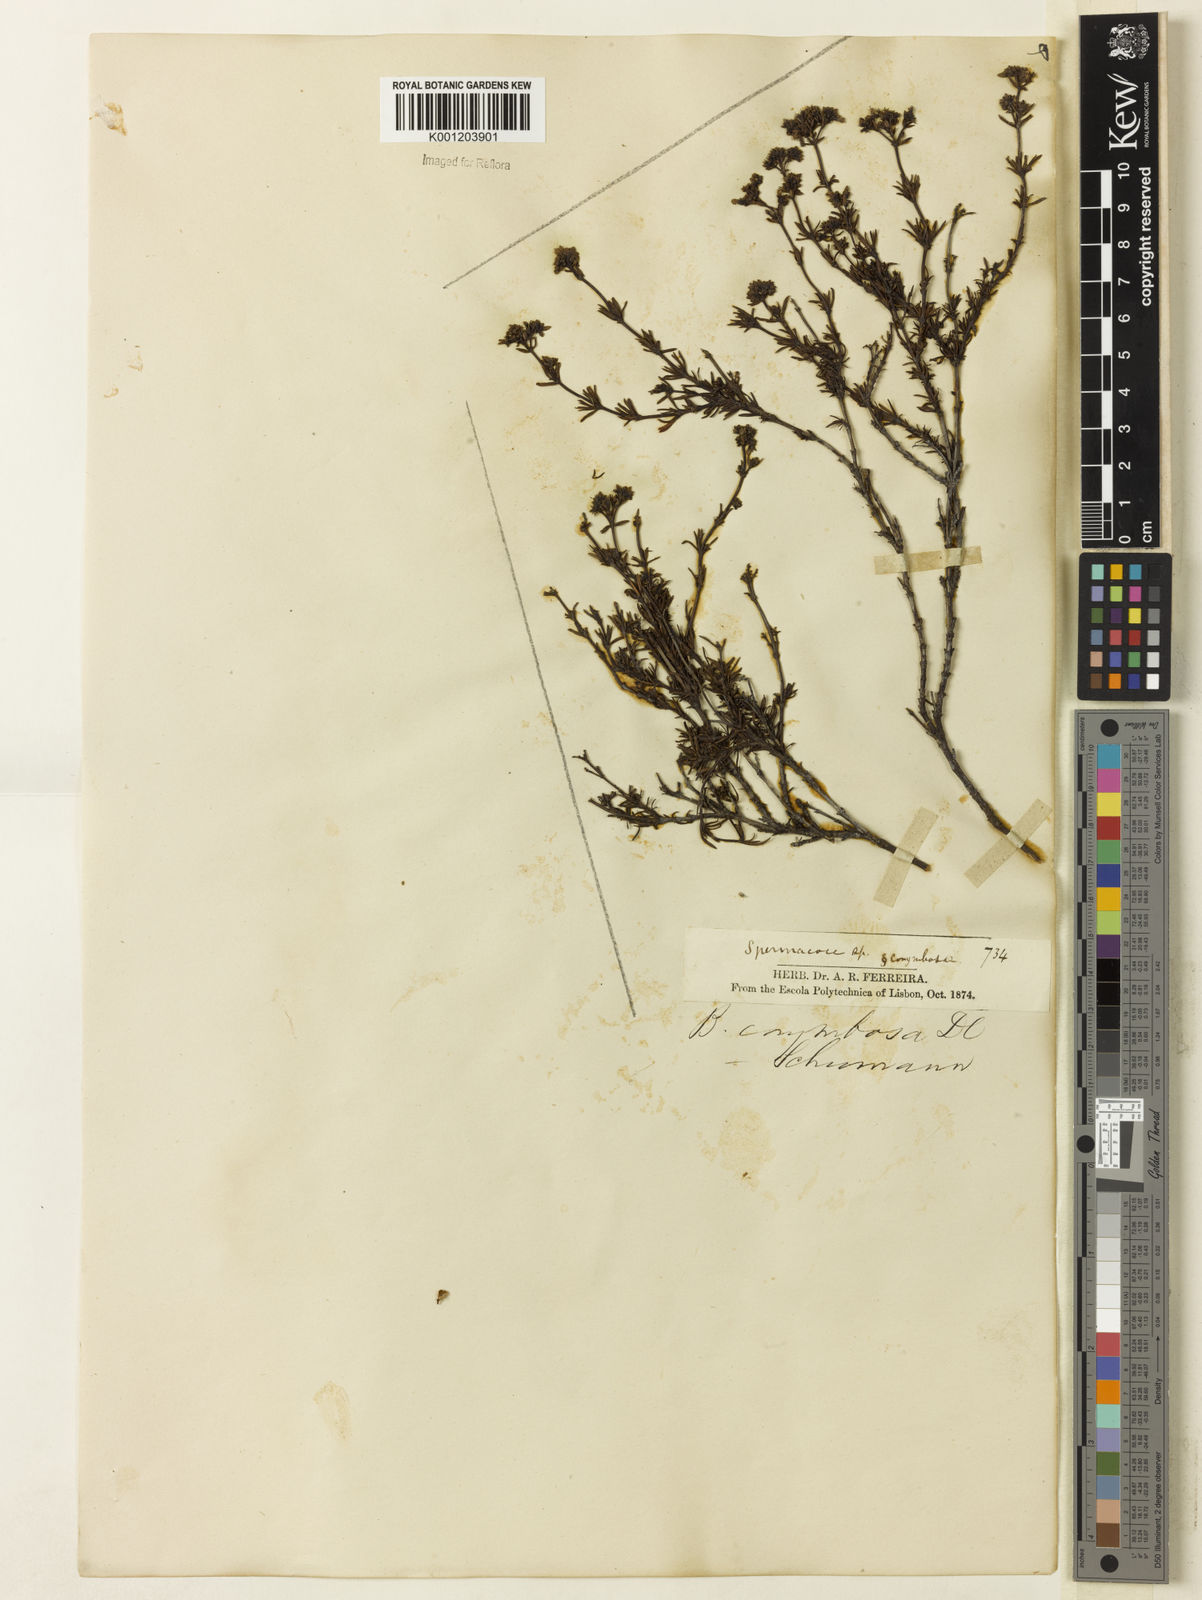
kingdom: Plantae
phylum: Tracheophyta
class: Magnoliopsida
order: Gentianales
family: Rubiaceae
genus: Galianthe
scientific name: Galianthe peruviana
